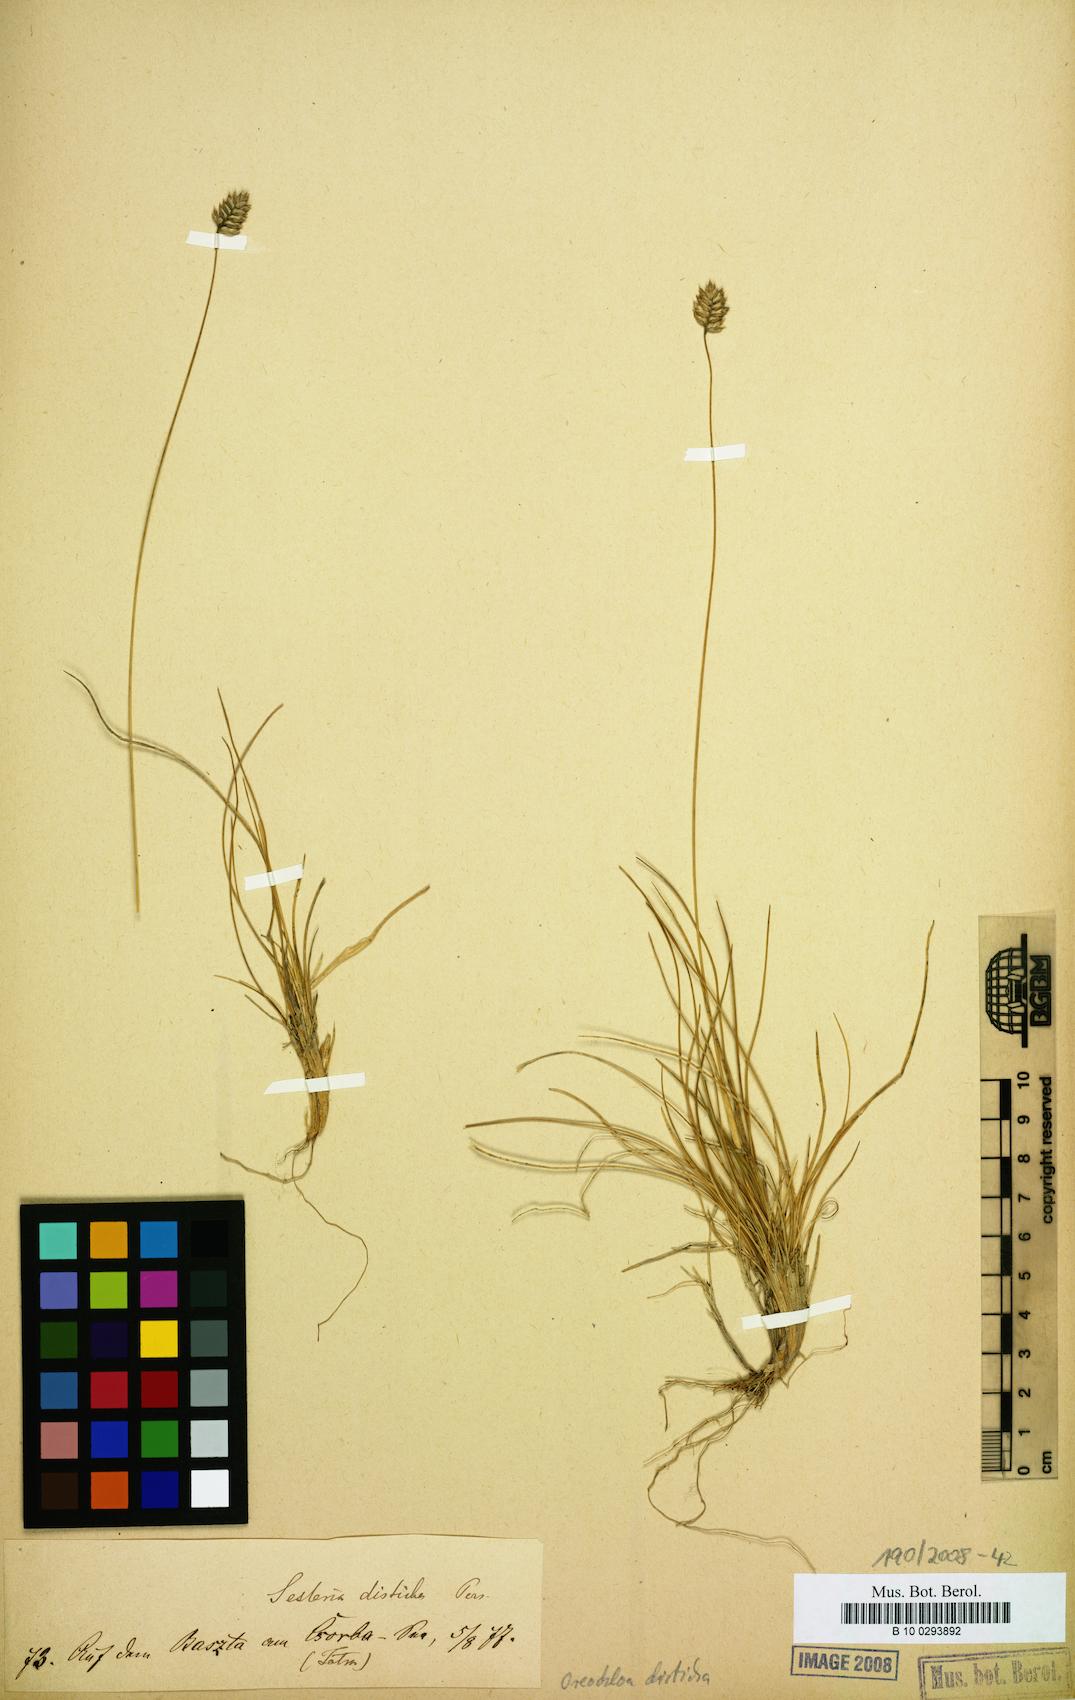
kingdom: Plantae
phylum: Tracheophyta
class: Liliopsida
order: Poales
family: Poaceae
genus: Oreochloa
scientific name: Oreochloa disticha
